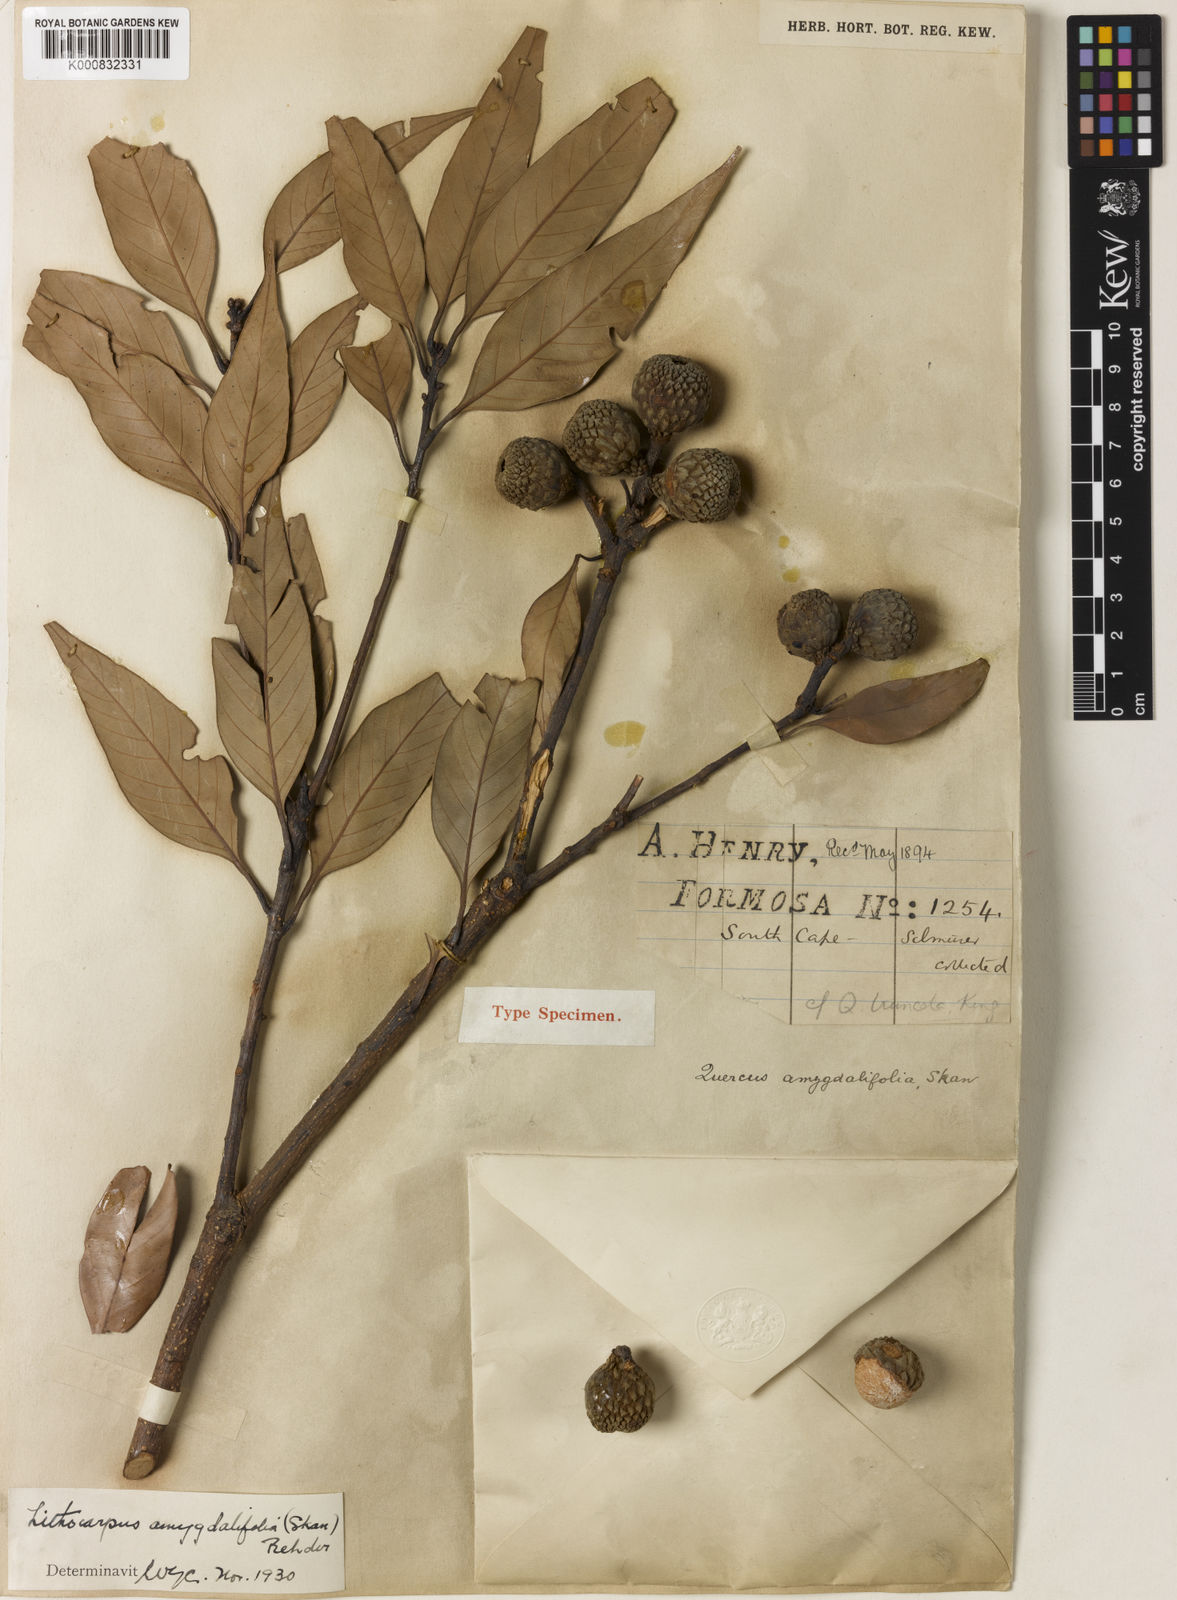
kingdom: Plantae
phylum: Tracheophyta
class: Magnoliopsida
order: Fagales
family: Fagaceae
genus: Lithocarpus
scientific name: Lithocarpus amygdalifolius
